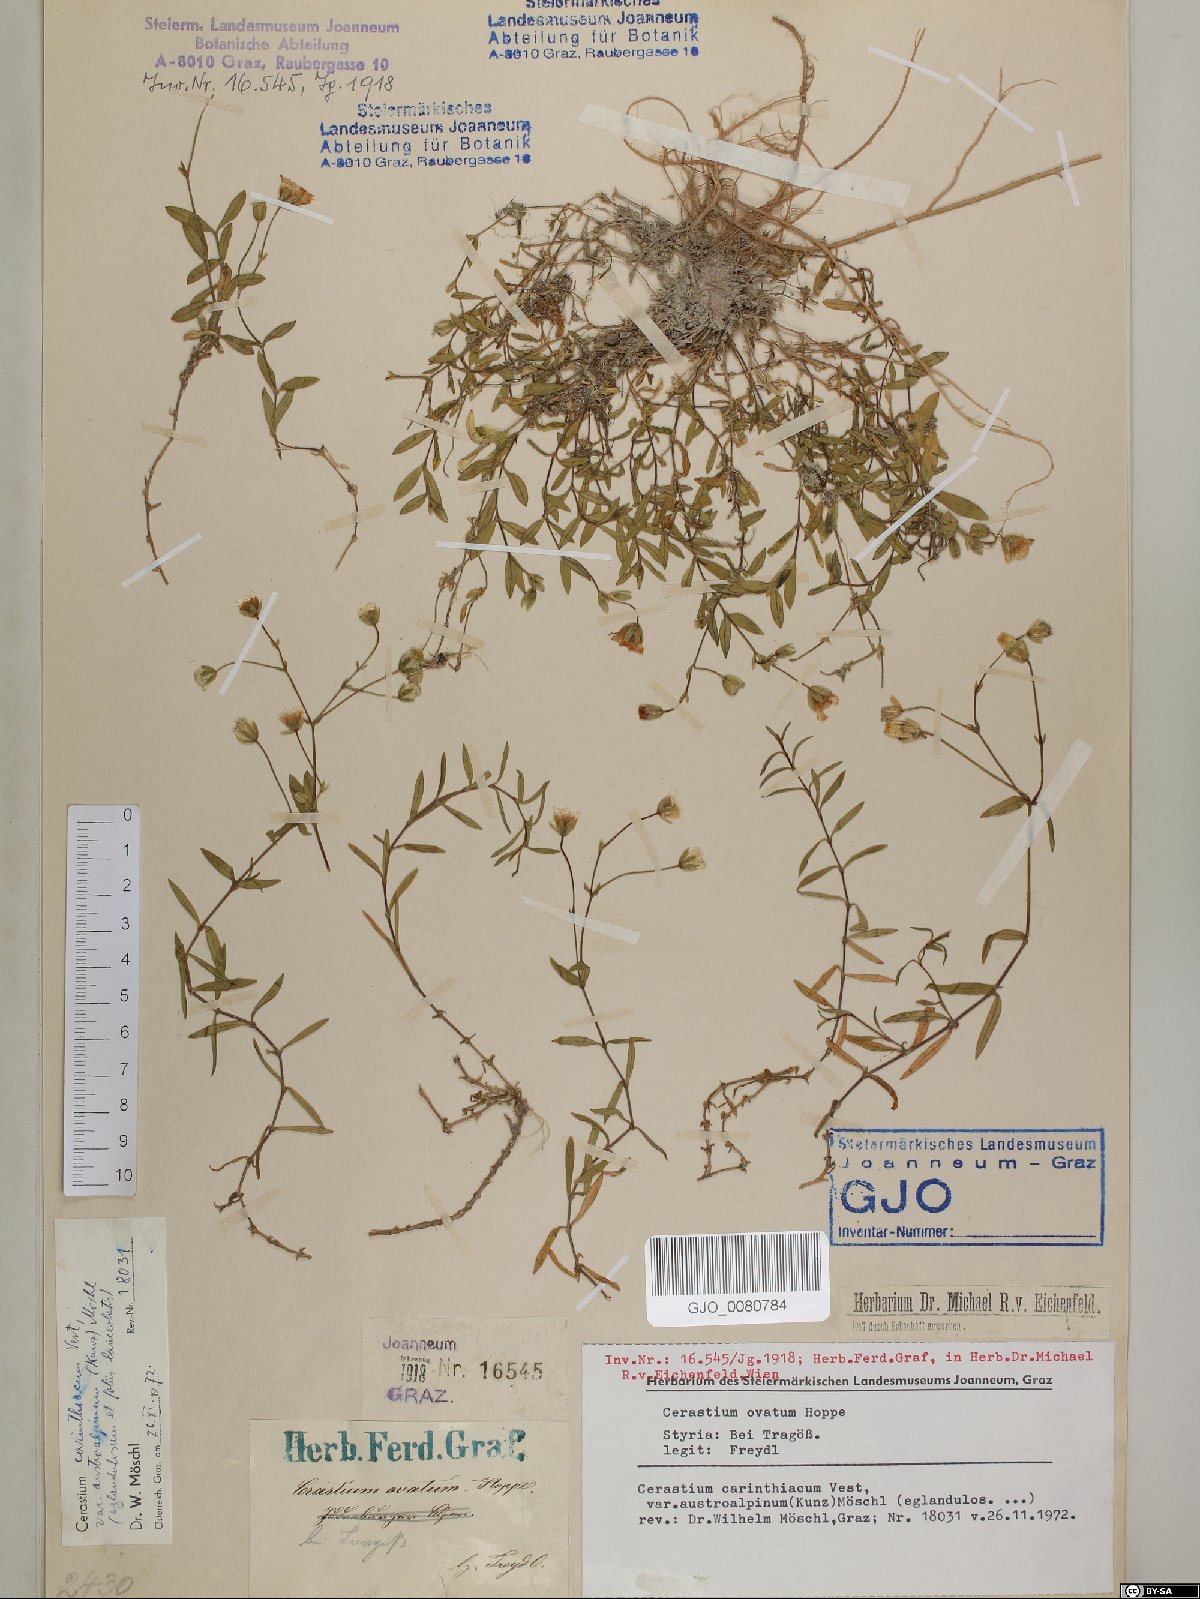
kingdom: Plantae
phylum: Tracheophyta
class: Magnoliopsida
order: Caryophyllales
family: Caryophyllaceae
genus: Cerastium
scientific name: Cerastium carinthiacum
